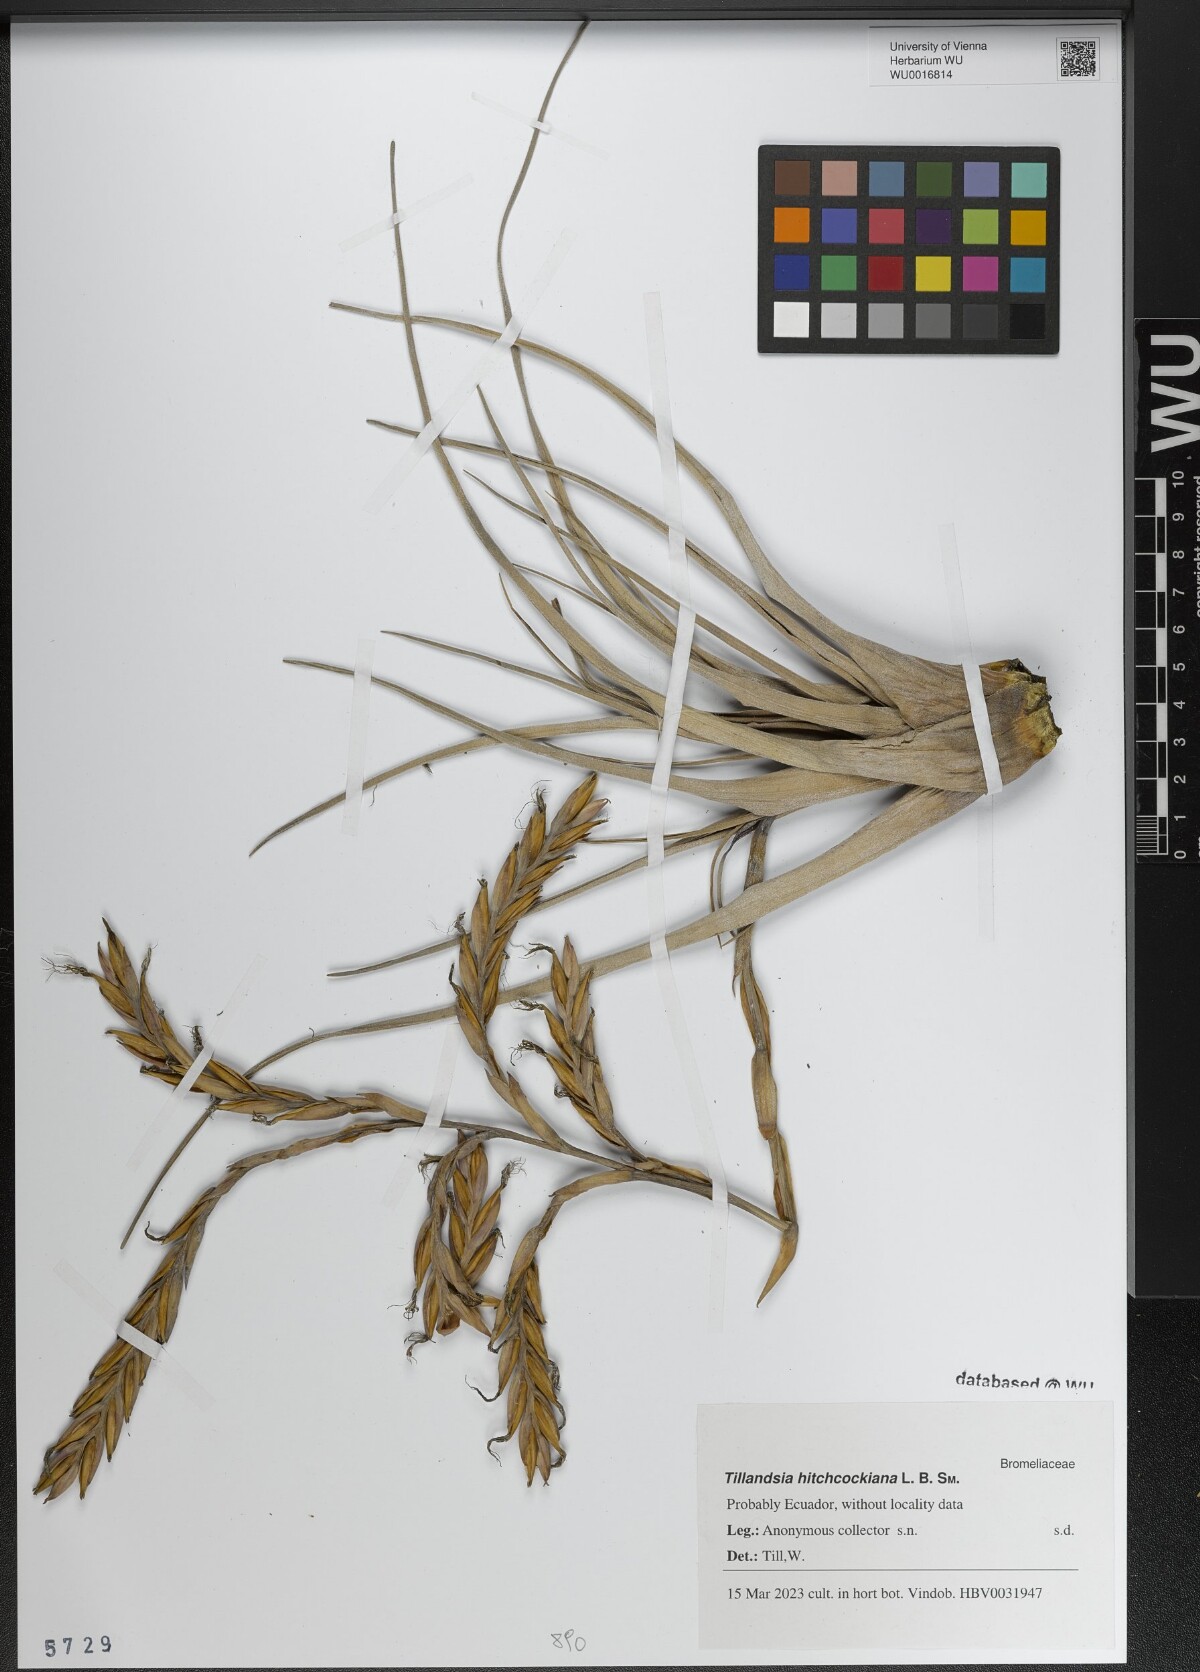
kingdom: Plantae
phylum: Tracheophyta
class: Liliopsida
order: Poales
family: Bromeliaceae
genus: Vriesea
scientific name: Vriesea hitchcockiana
